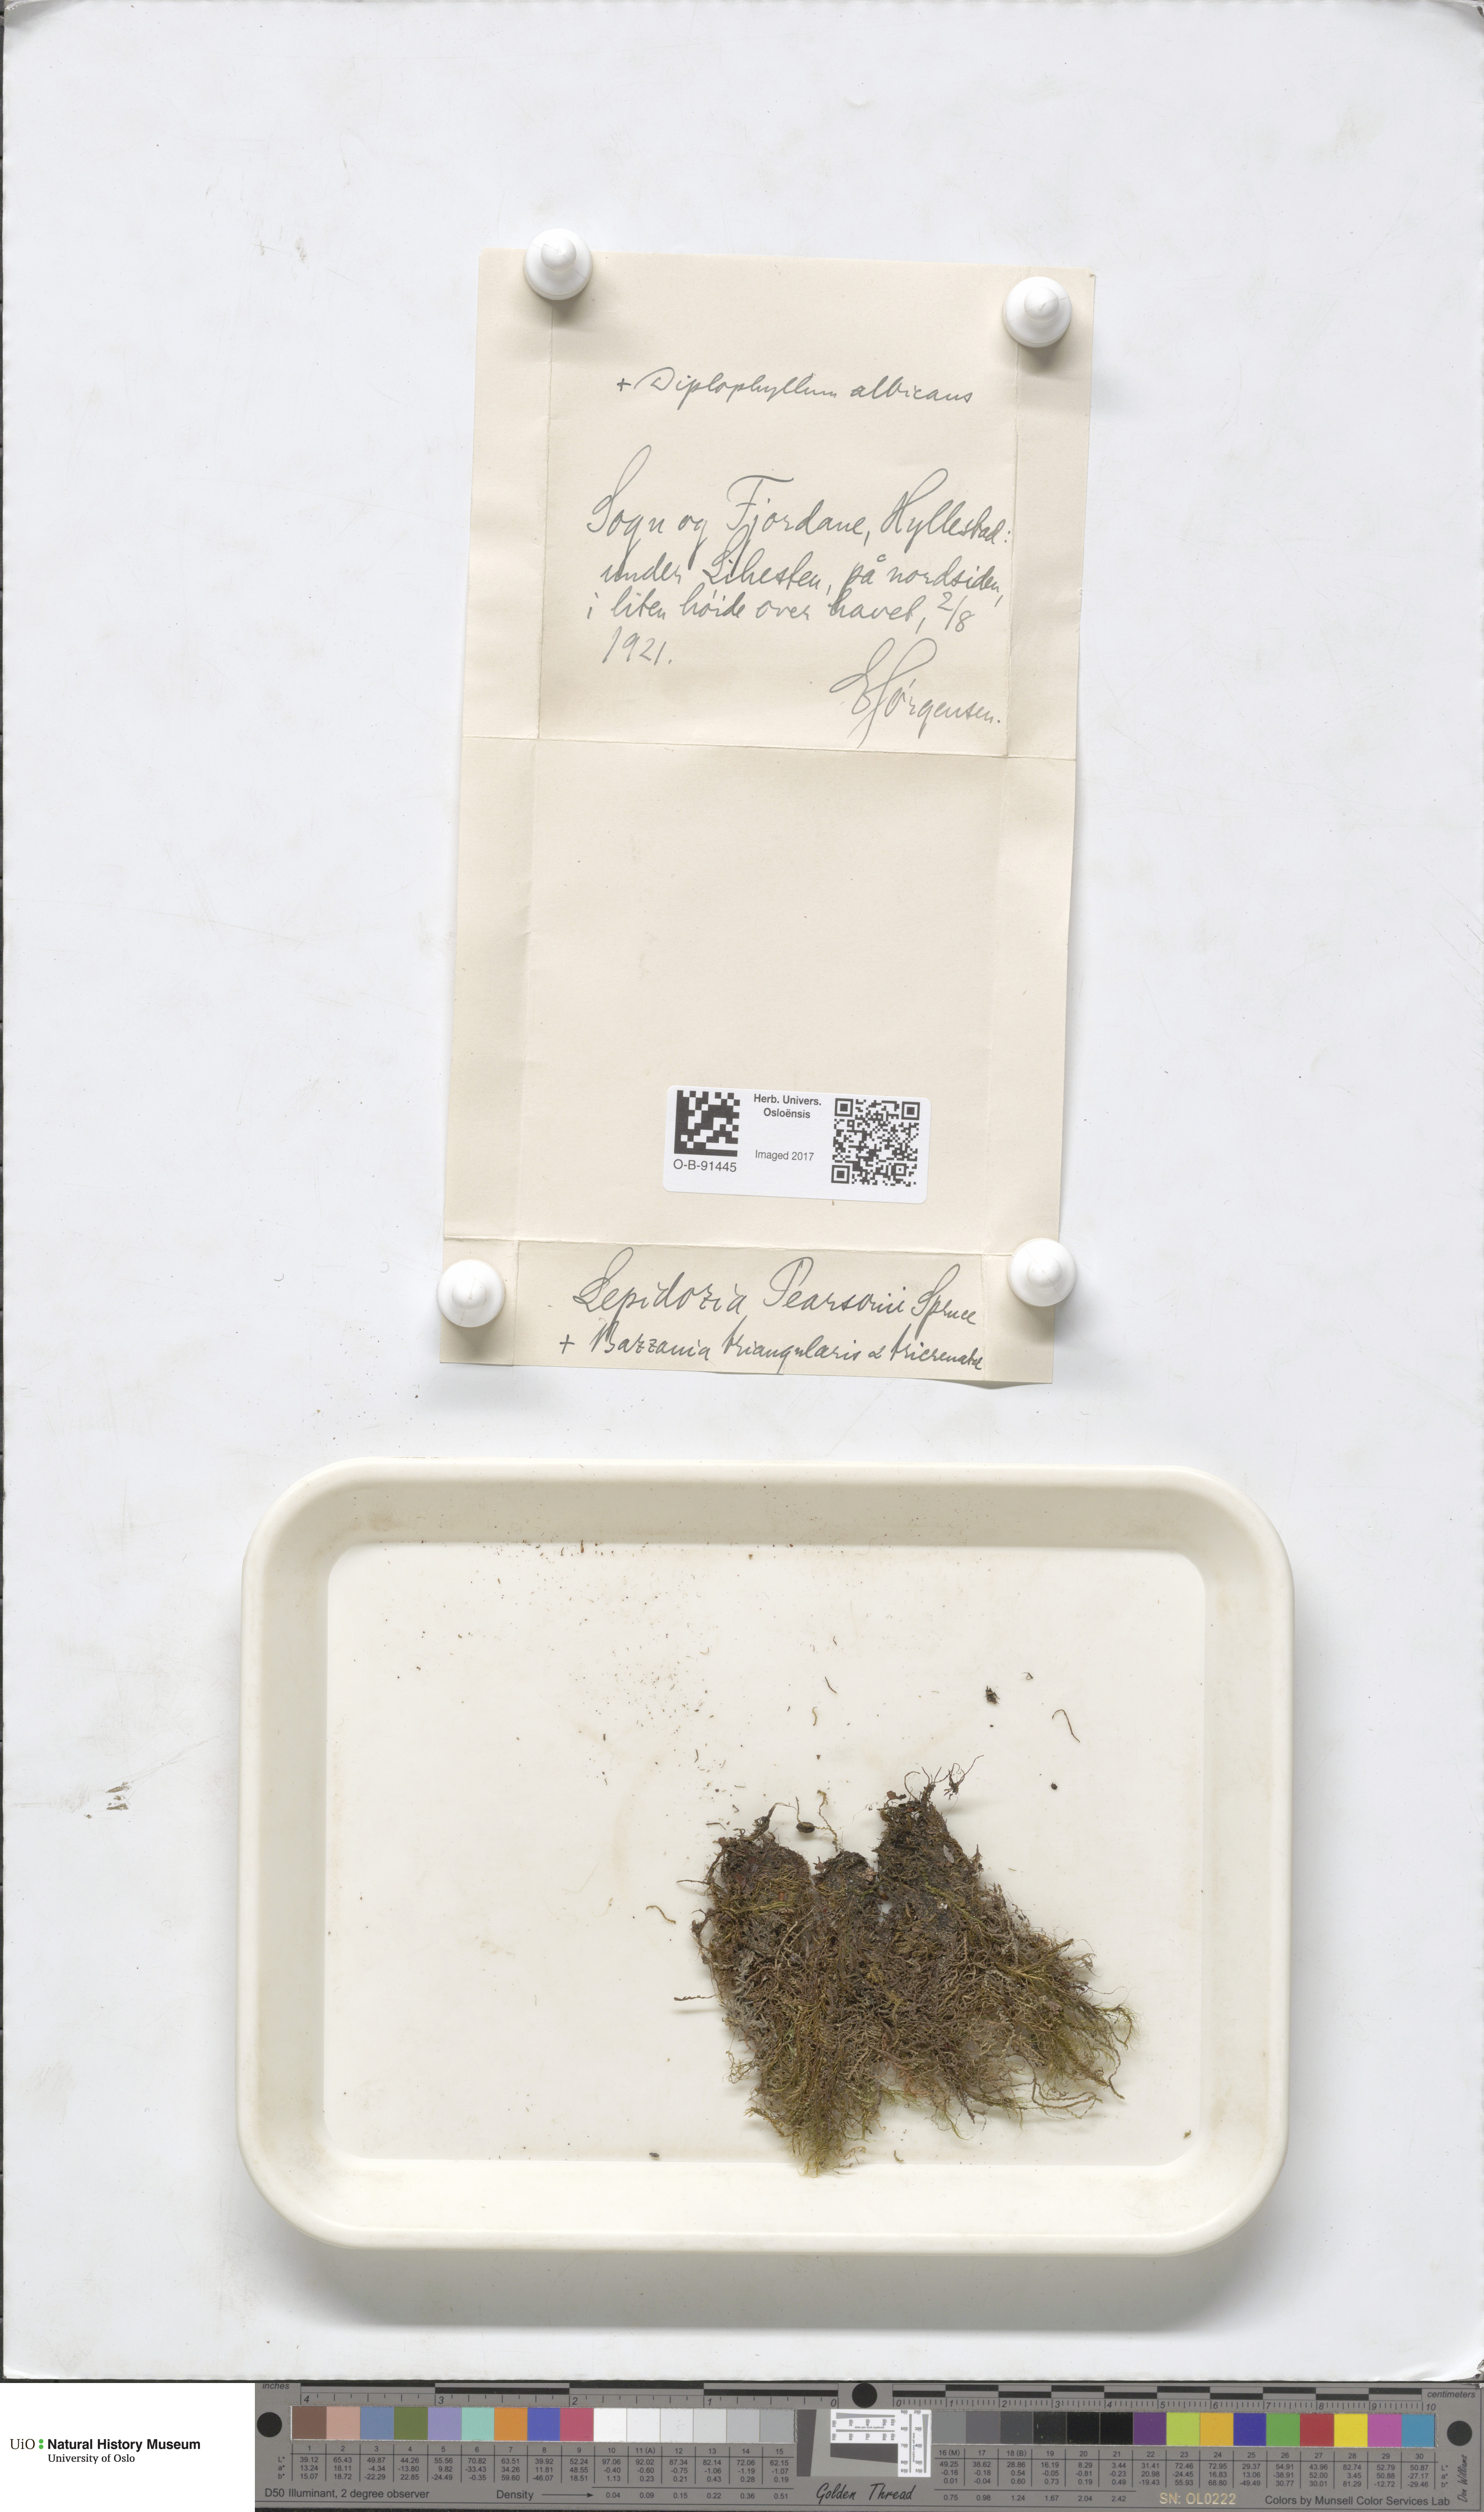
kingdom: Plantae
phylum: Marchantiophyta
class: Jungermanniopsida
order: Jungermanniales
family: Lepidoziaceae
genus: Lepidozia
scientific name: Lepidozia pearsonii
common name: Pearson's fingerwort
